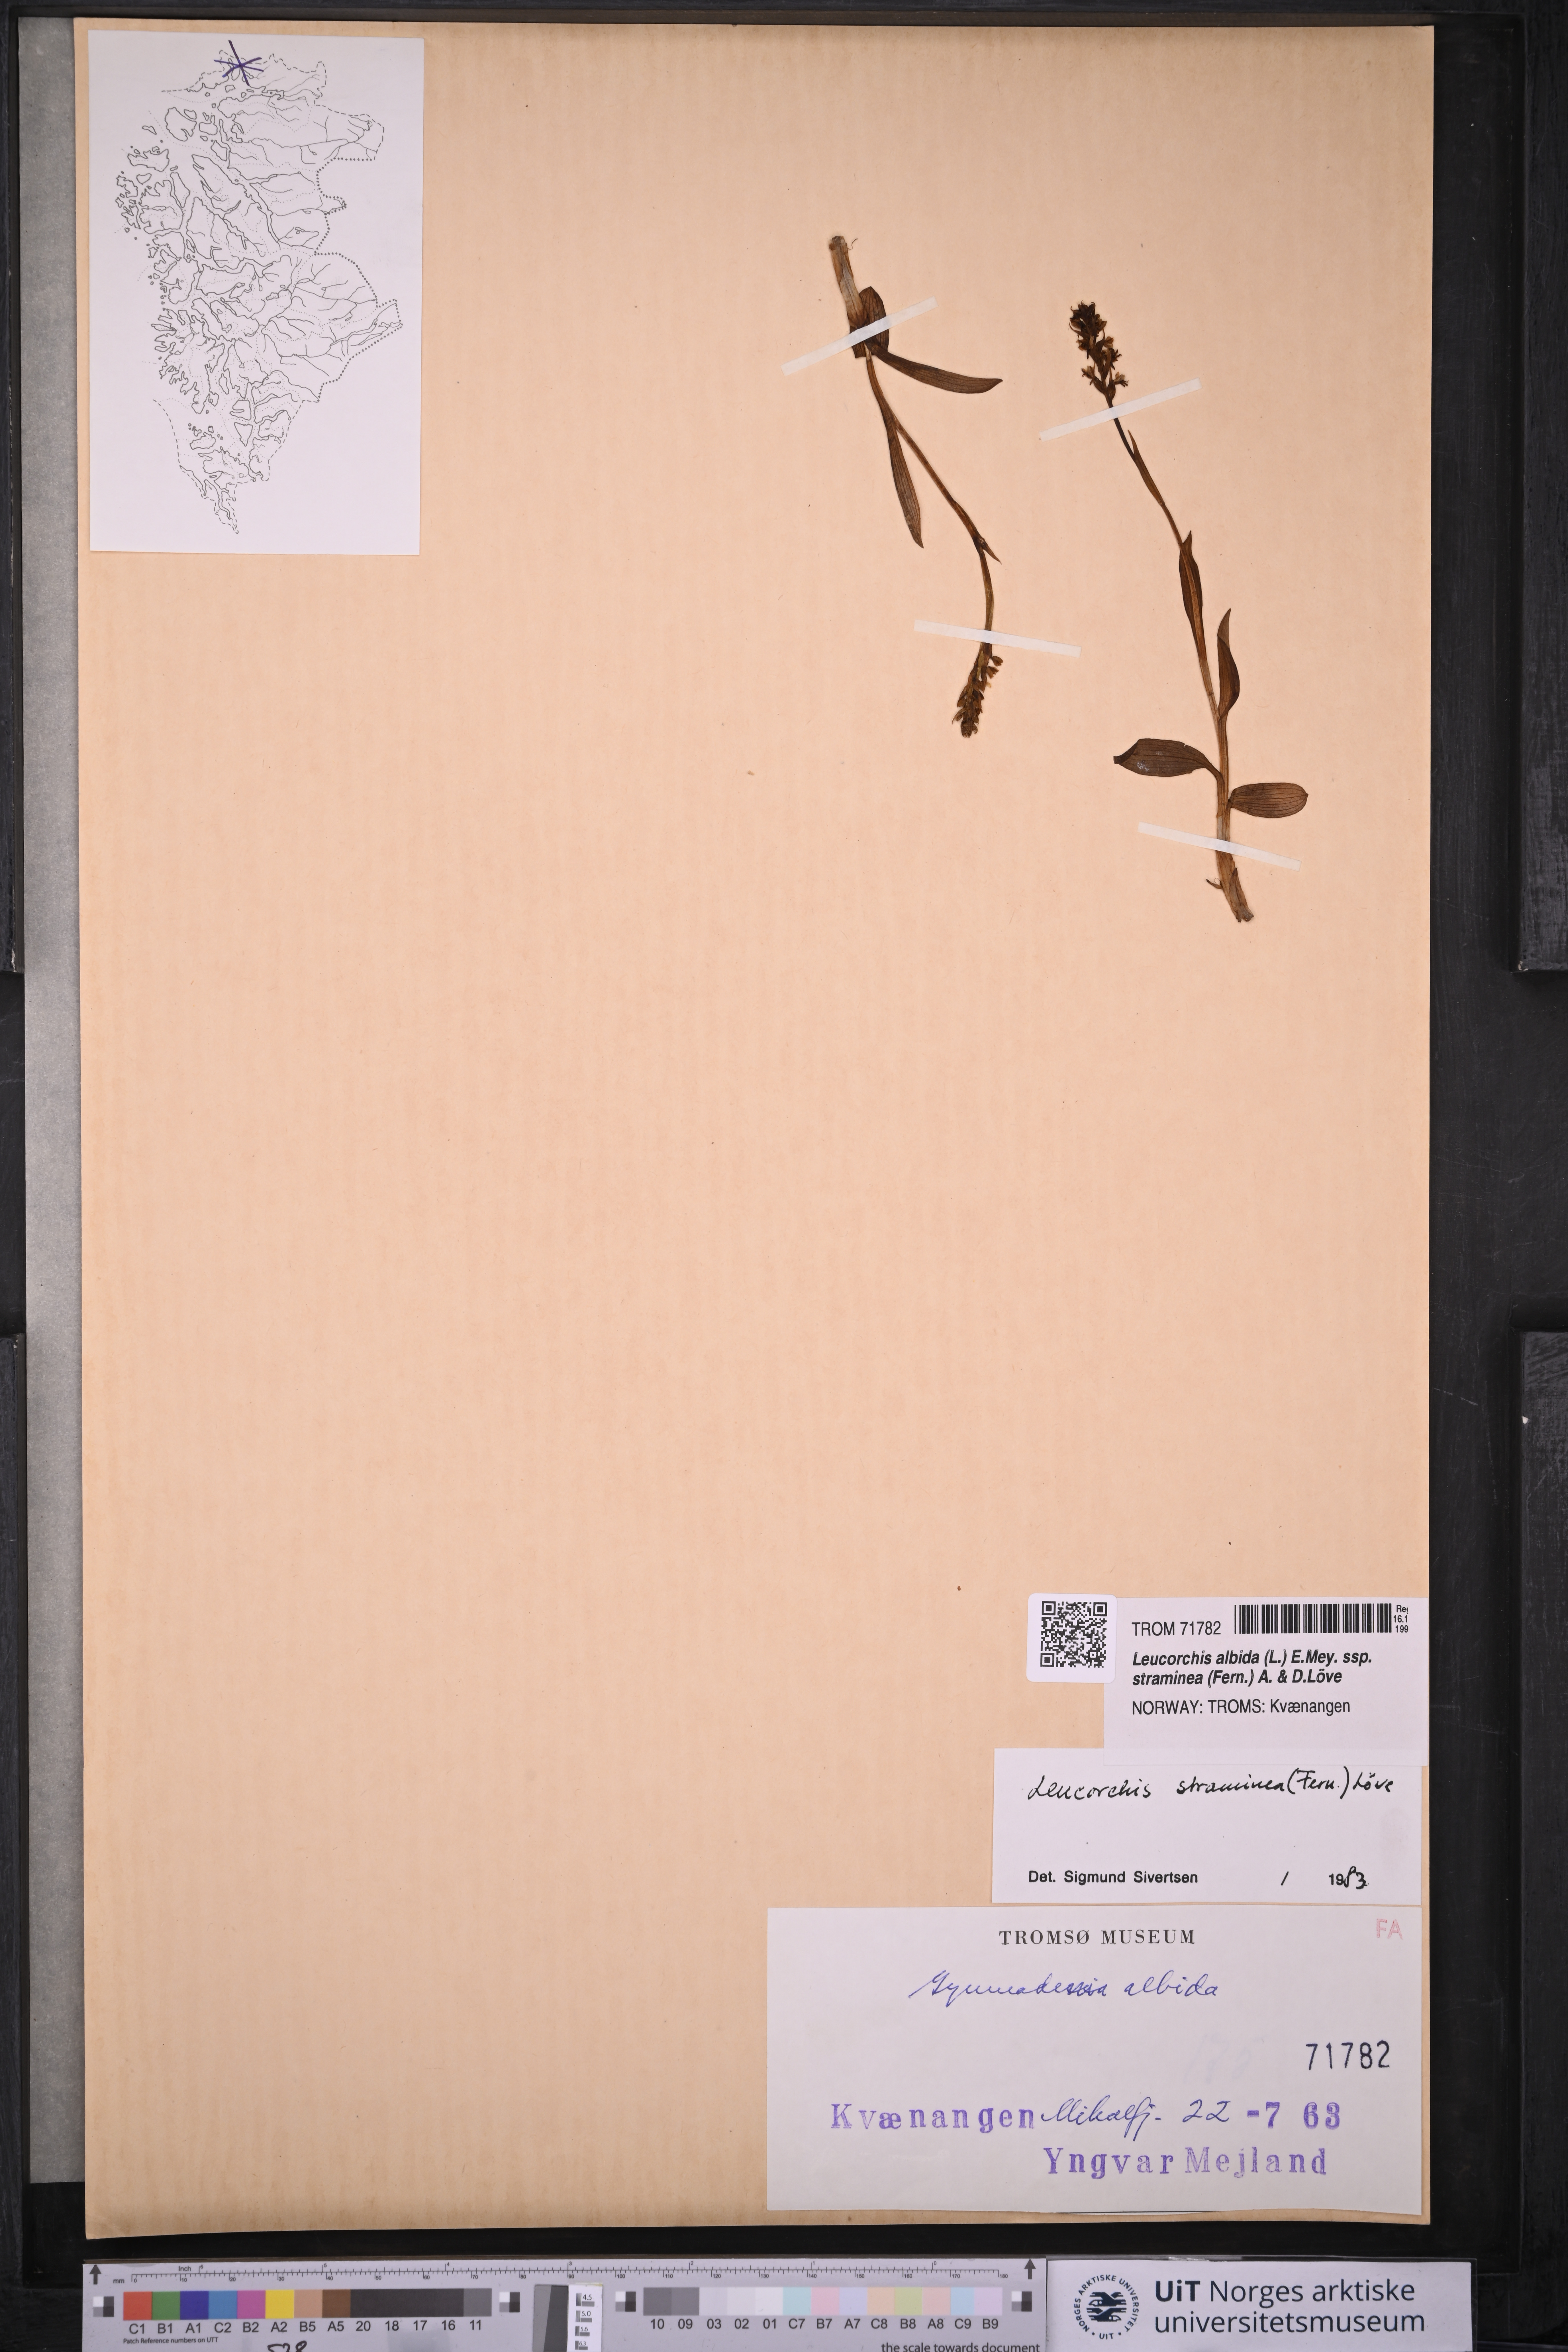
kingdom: Plantae
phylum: Tracheophyta
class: Liliopsida
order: Asparagales
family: Orchidaceae
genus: Pseudorchis
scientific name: Pseudorchis straminea
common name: Vanilla-scented bog orchid
